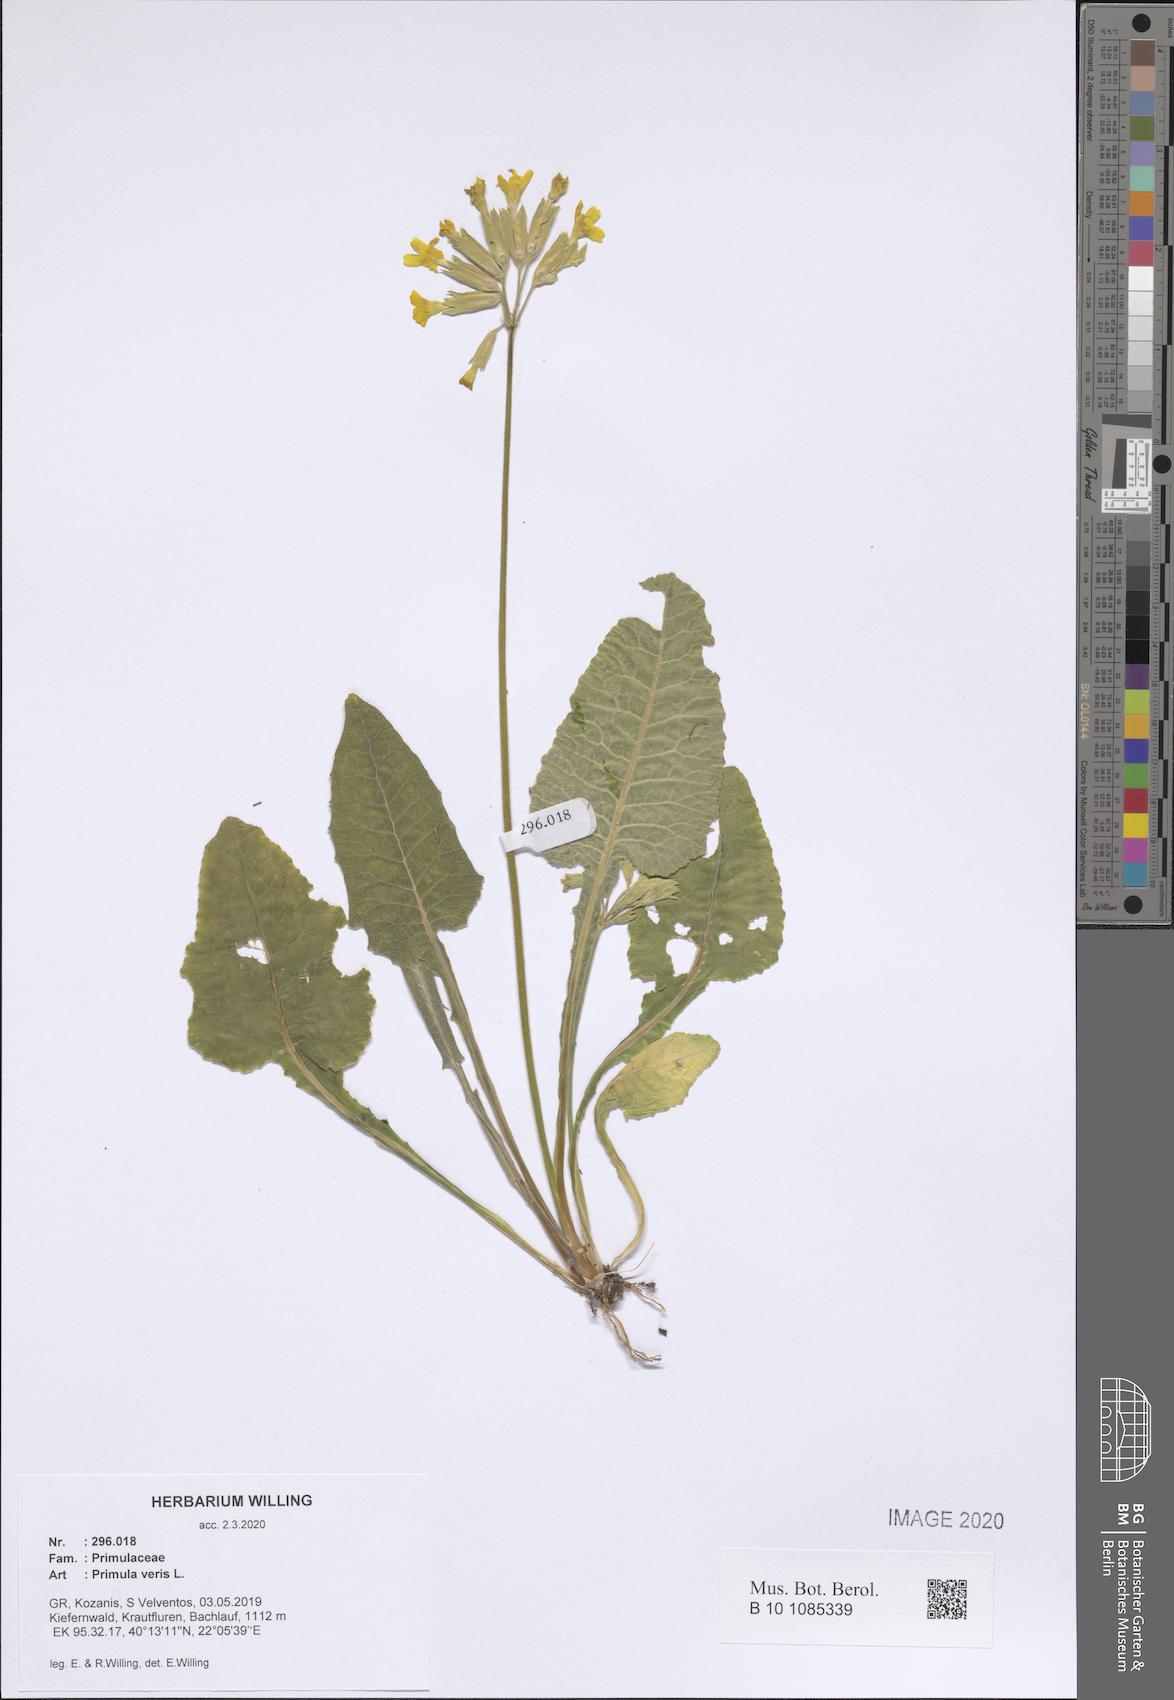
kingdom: Plantae
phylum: Tracheophyta
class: Magnoliopsida
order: Ericales
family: Primulaceae
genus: Primula
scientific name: Primula veris
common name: Cowslip
